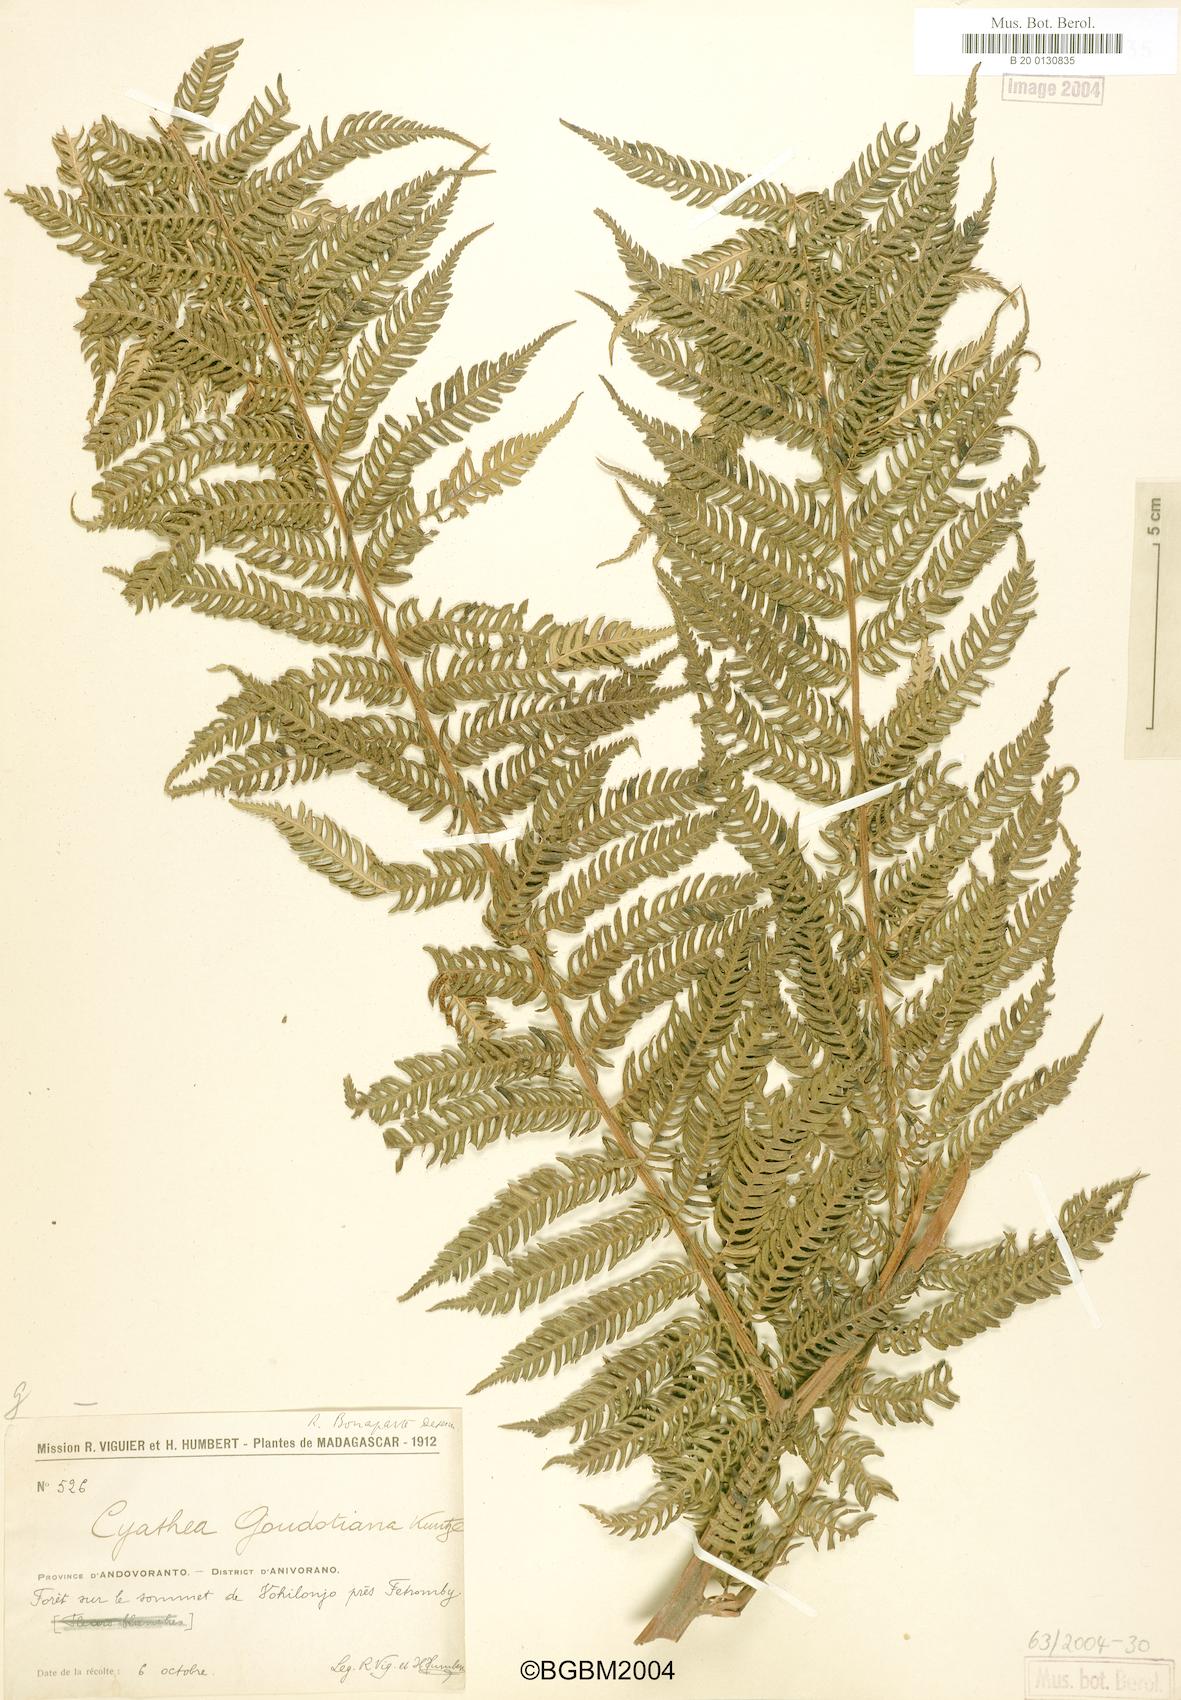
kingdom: Plantae
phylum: Tracheophyta
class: Polypodiopsida
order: Cyatheales
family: Cyatheaceae
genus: Alsophila
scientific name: Alsophila hyacinthei
